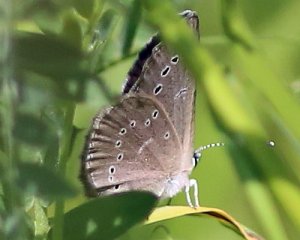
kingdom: Animalia
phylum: Arthropoda
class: Insecta
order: Lepidoptera
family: Lycaenidae
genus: Glaucopsyche
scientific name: Glaucopsyche lygdamus
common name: Silvery Blue
